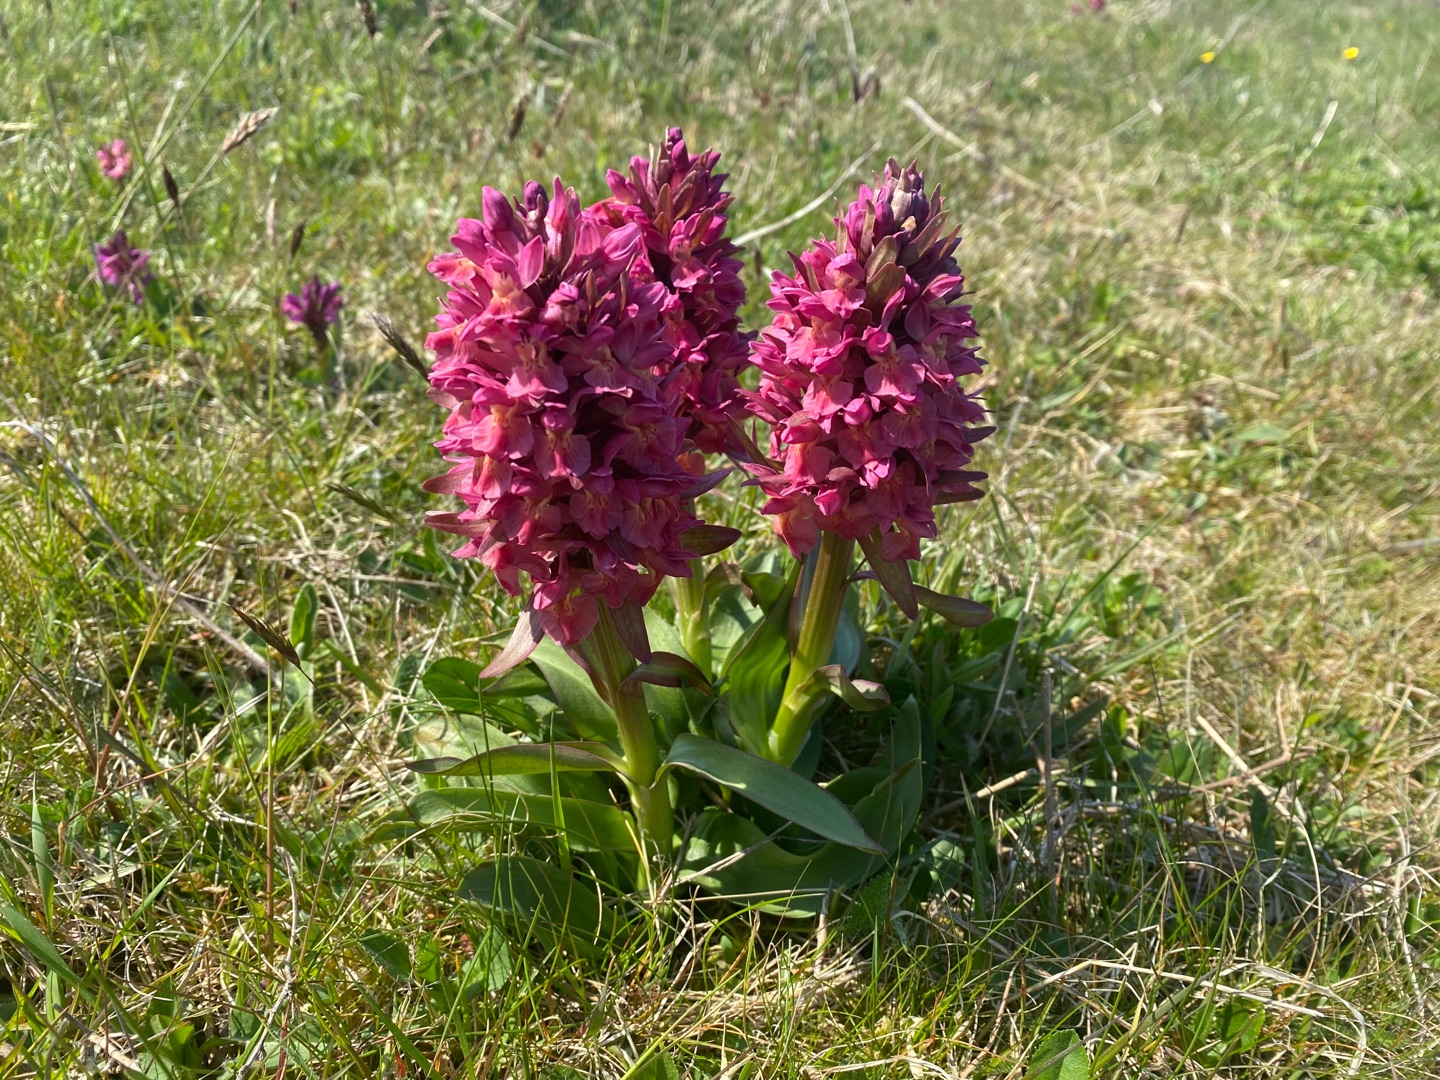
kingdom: Plantae
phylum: Tracheophyta
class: Liliopsida
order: Asparagales
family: Orchidaceae
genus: Dactylorhiza
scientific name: Dactylorhiza sambucina
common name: Hylde-gøgeurt
